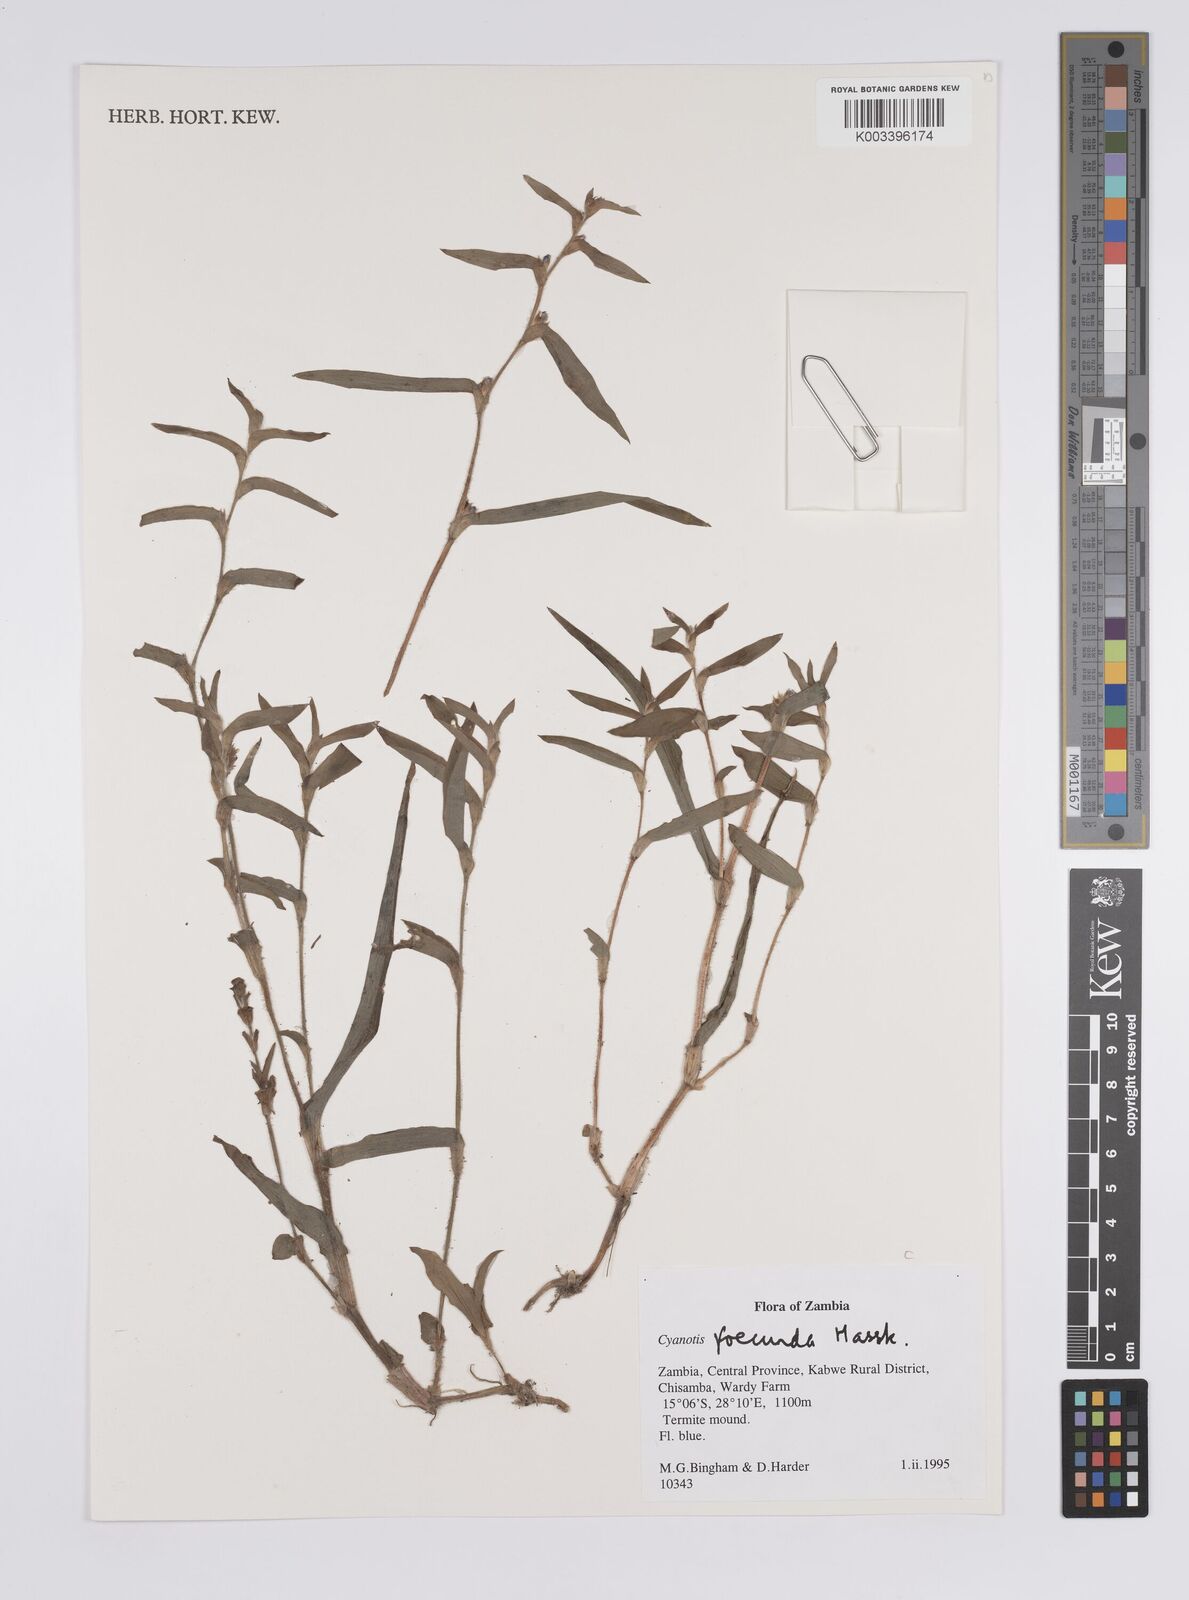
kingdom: Plantae
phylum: Tracheophyta
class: Liliopsida
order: Commelinales
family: Commelinaceae
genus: Cyanotis
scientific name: Cyanotis foecunda
